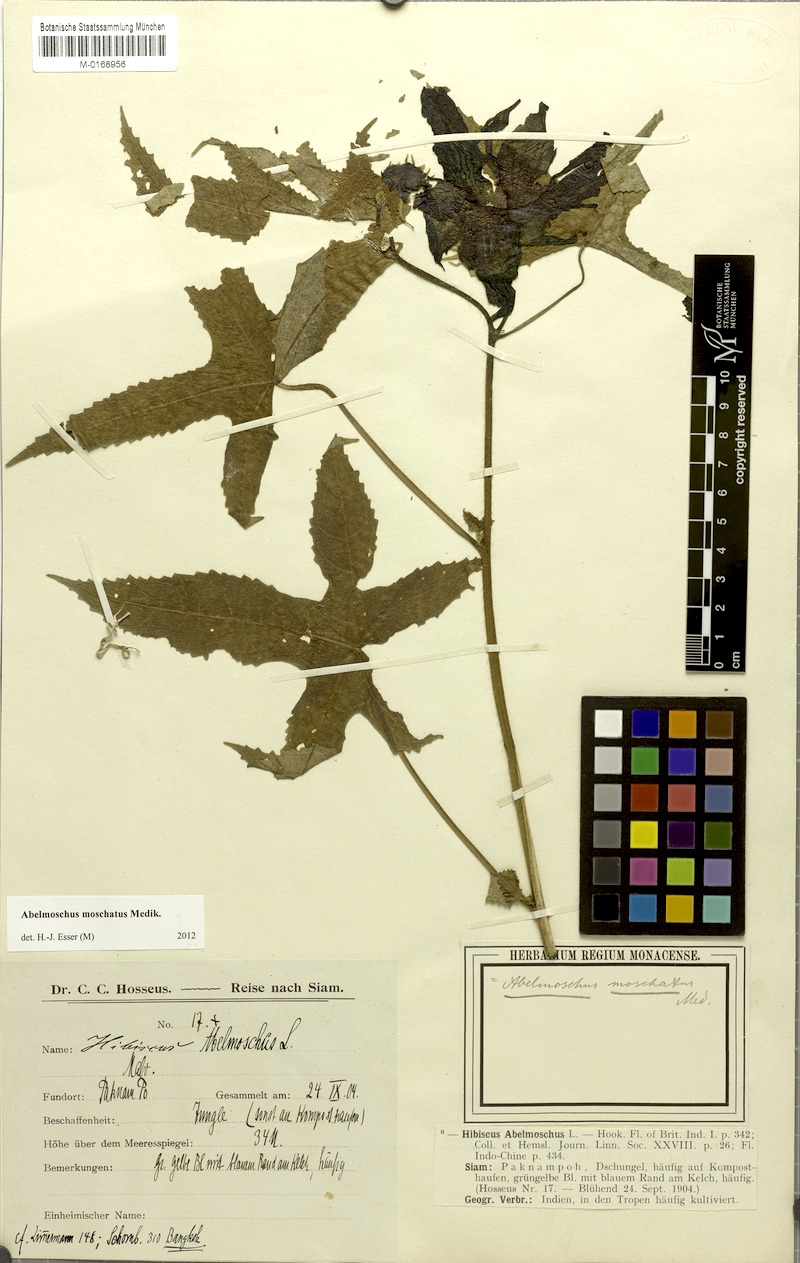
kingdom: Plantae
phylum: Tracheophyta
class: Magnoliopsida
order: Malvales
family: Malvaceae
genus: Abelmoschus
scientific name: Abelmoschus moschatus
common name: Musk okra
